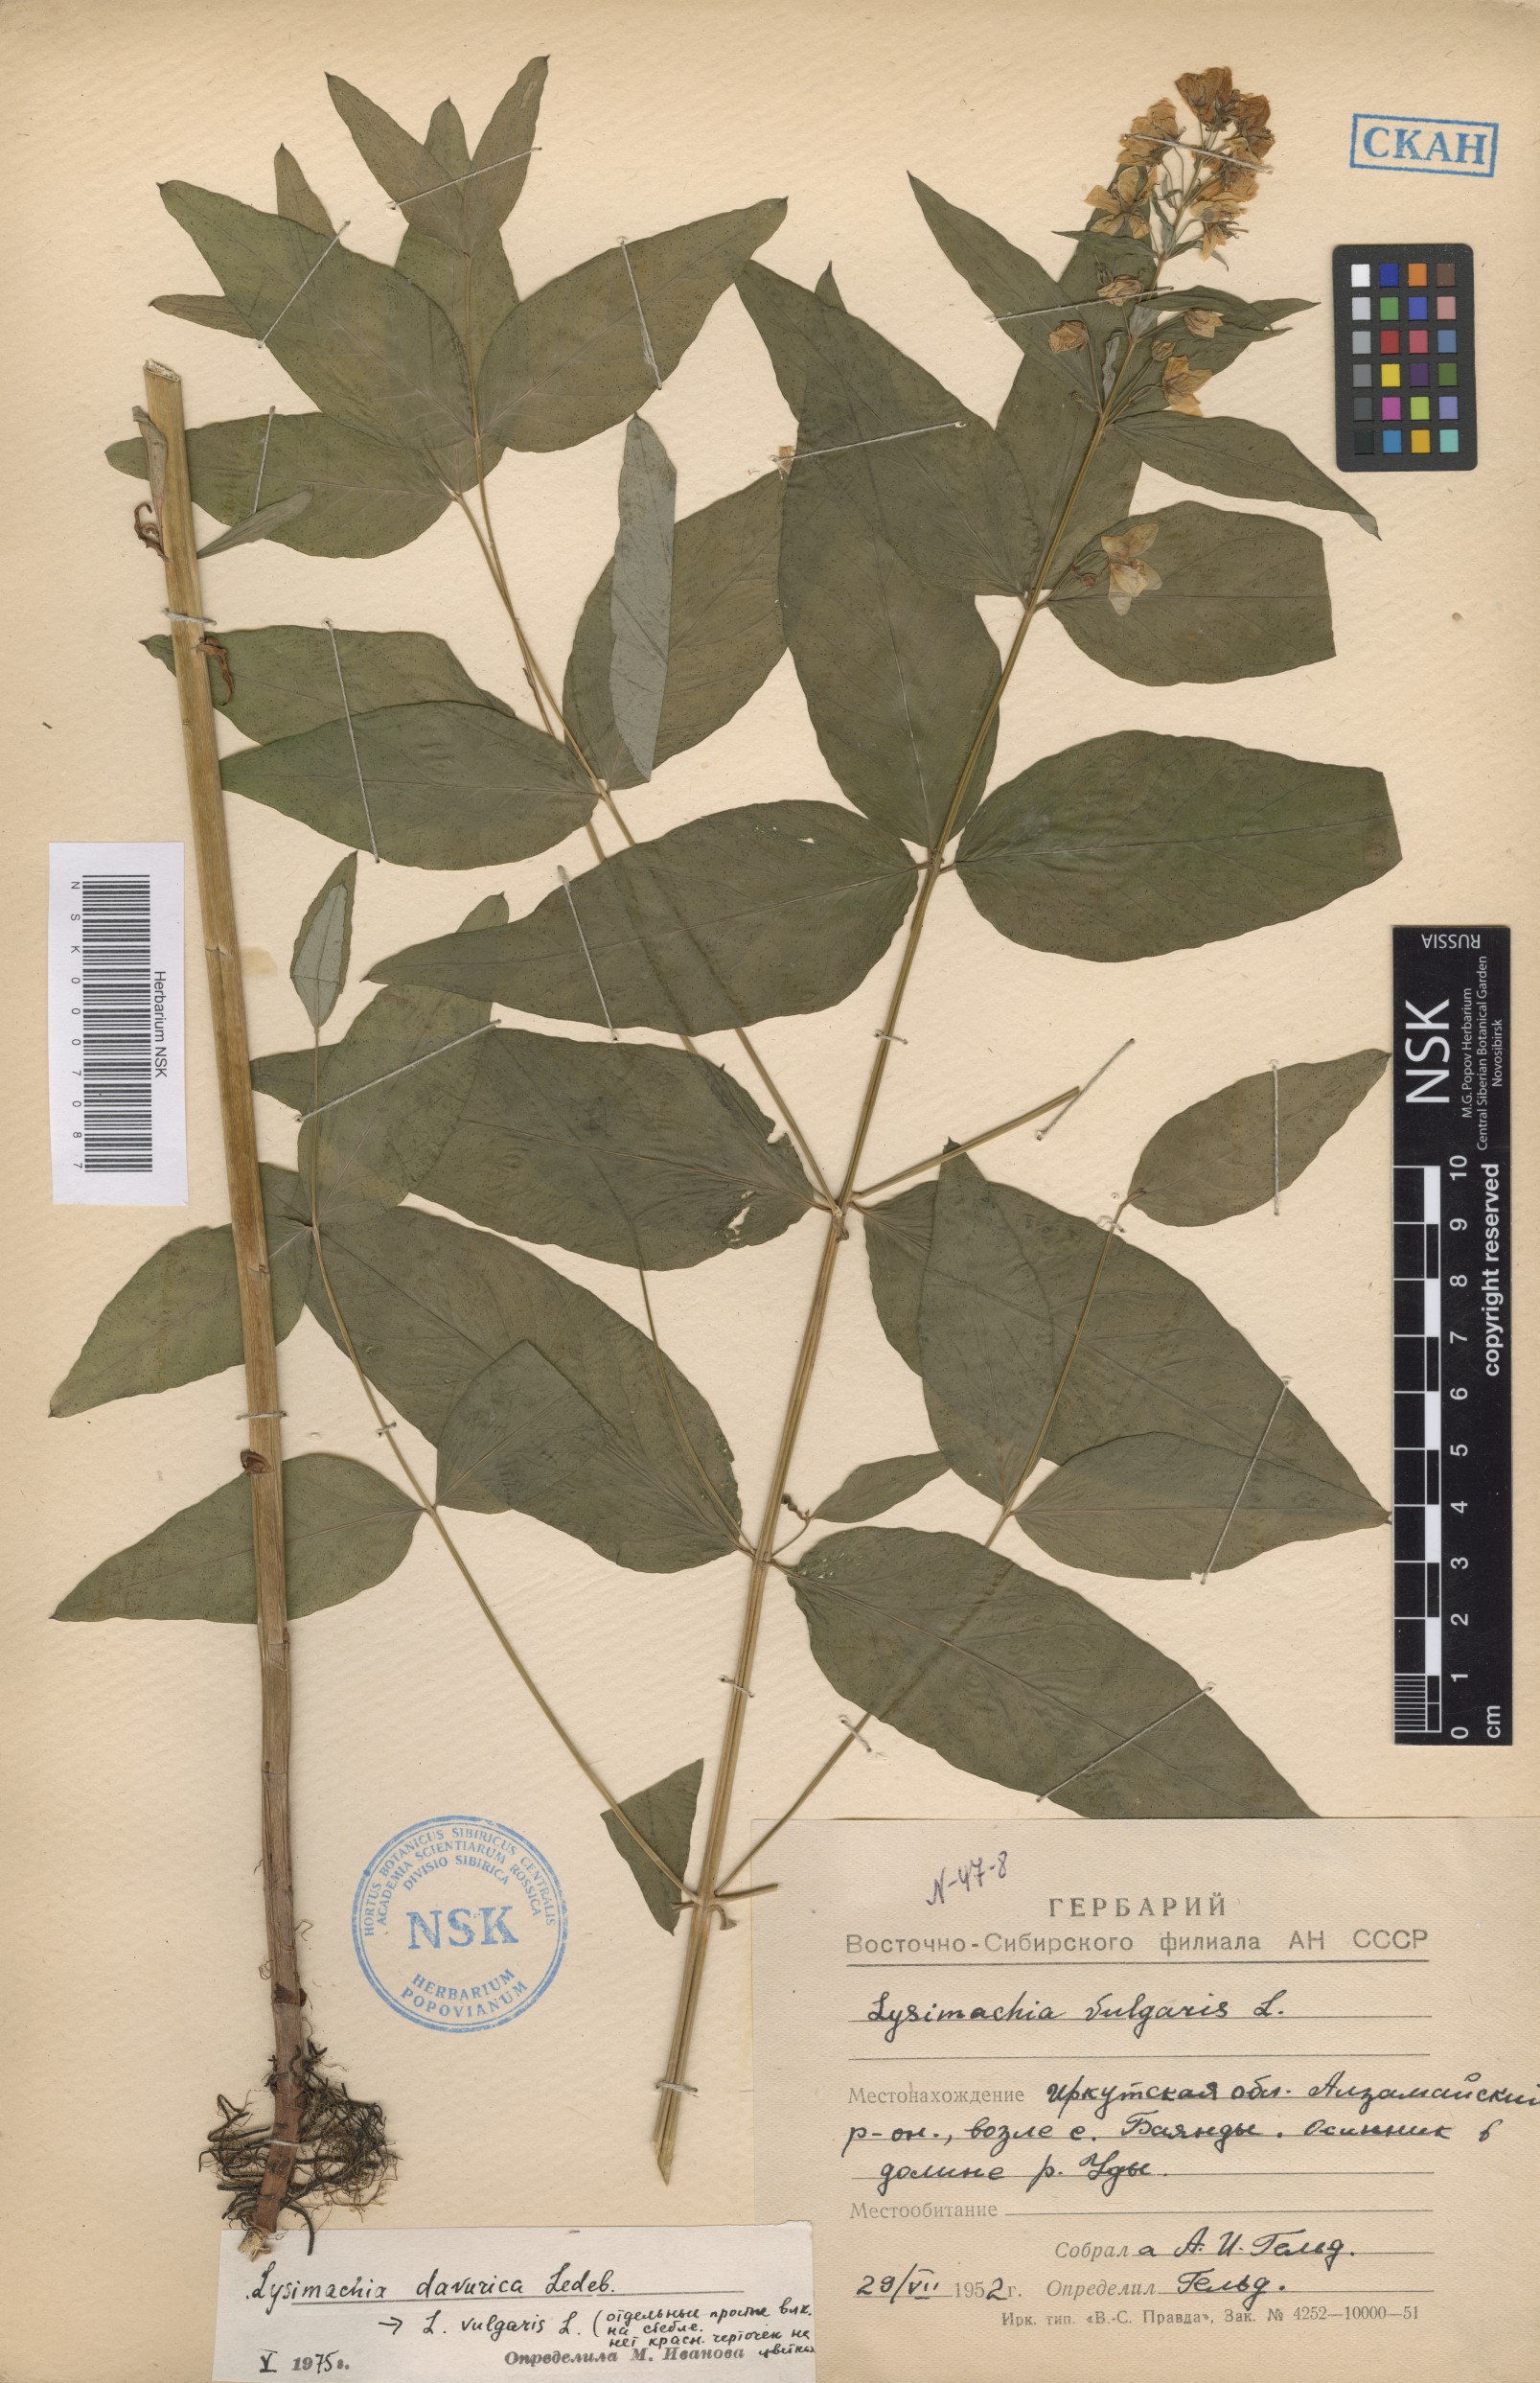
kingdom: Plantae
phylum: Tracheophyta
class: Magnoliopsida
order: Ericales
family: Primulaceae
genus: Lysimachia
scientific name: Lysimachia davurica
